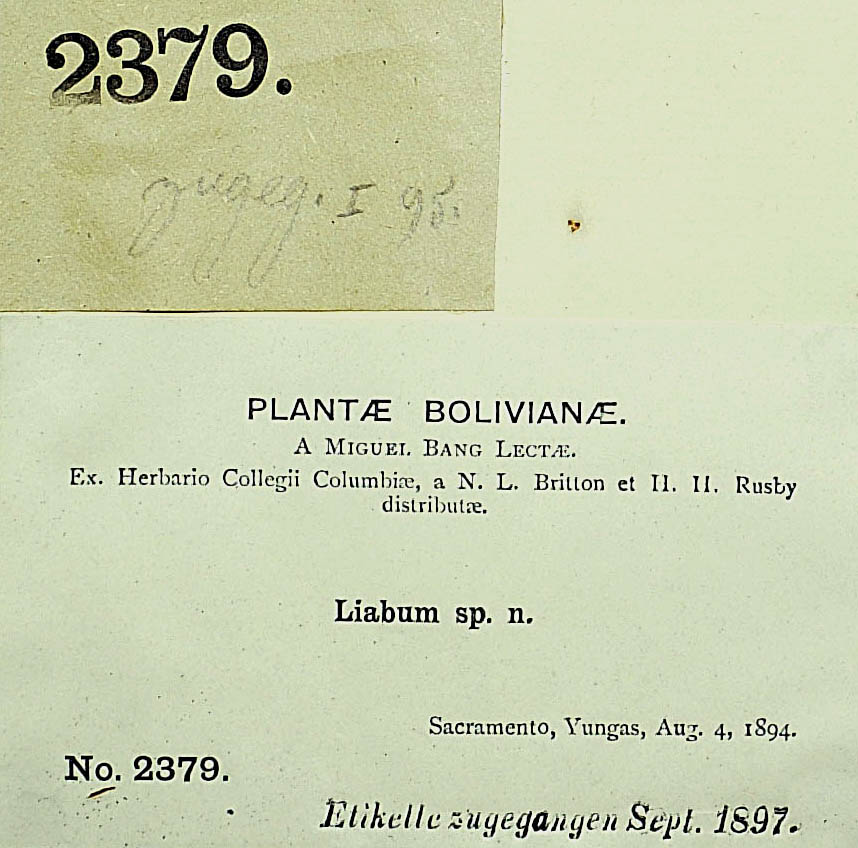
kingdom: Plantae
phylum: Tracheophyta
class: Magnoliopsida
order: Asterales
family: Asteraceae
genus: Munnozia
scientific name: Munnozia gigantea
